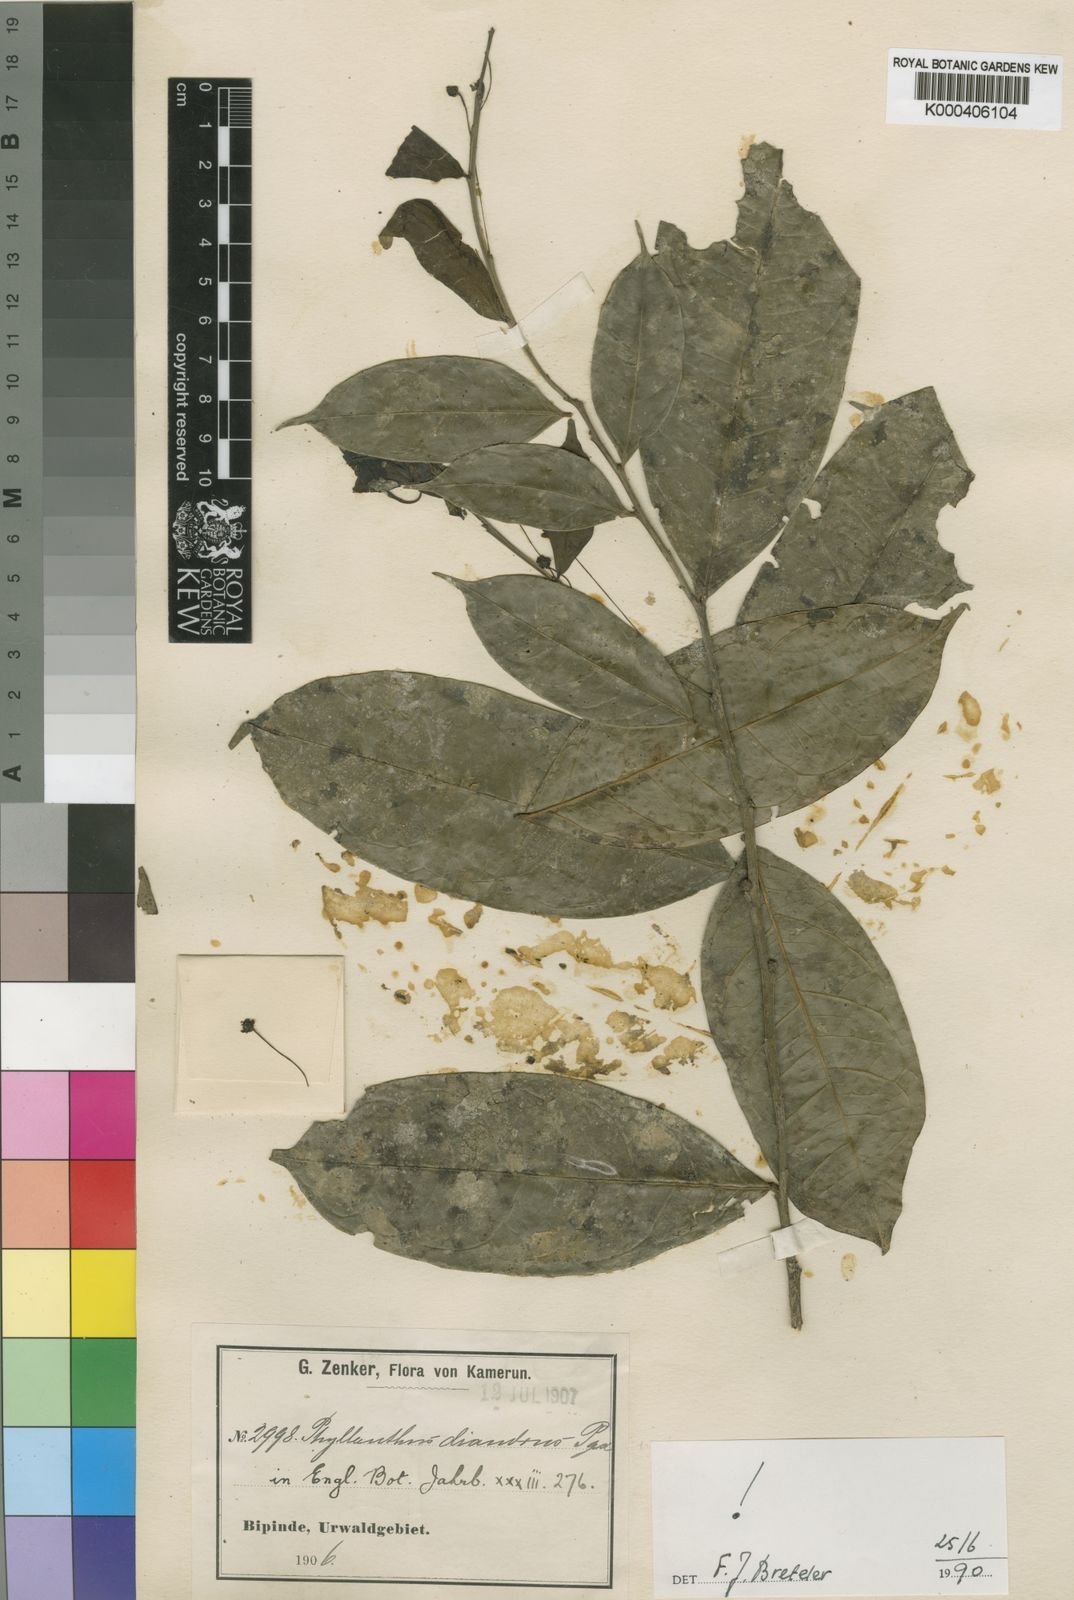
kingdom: Plantae
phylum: Tracheophyta
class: Magnoliopsida
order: Malpighiales
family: Phyllanthaceae
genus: Plagiocladus
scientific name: Plagiocladus diandrus
